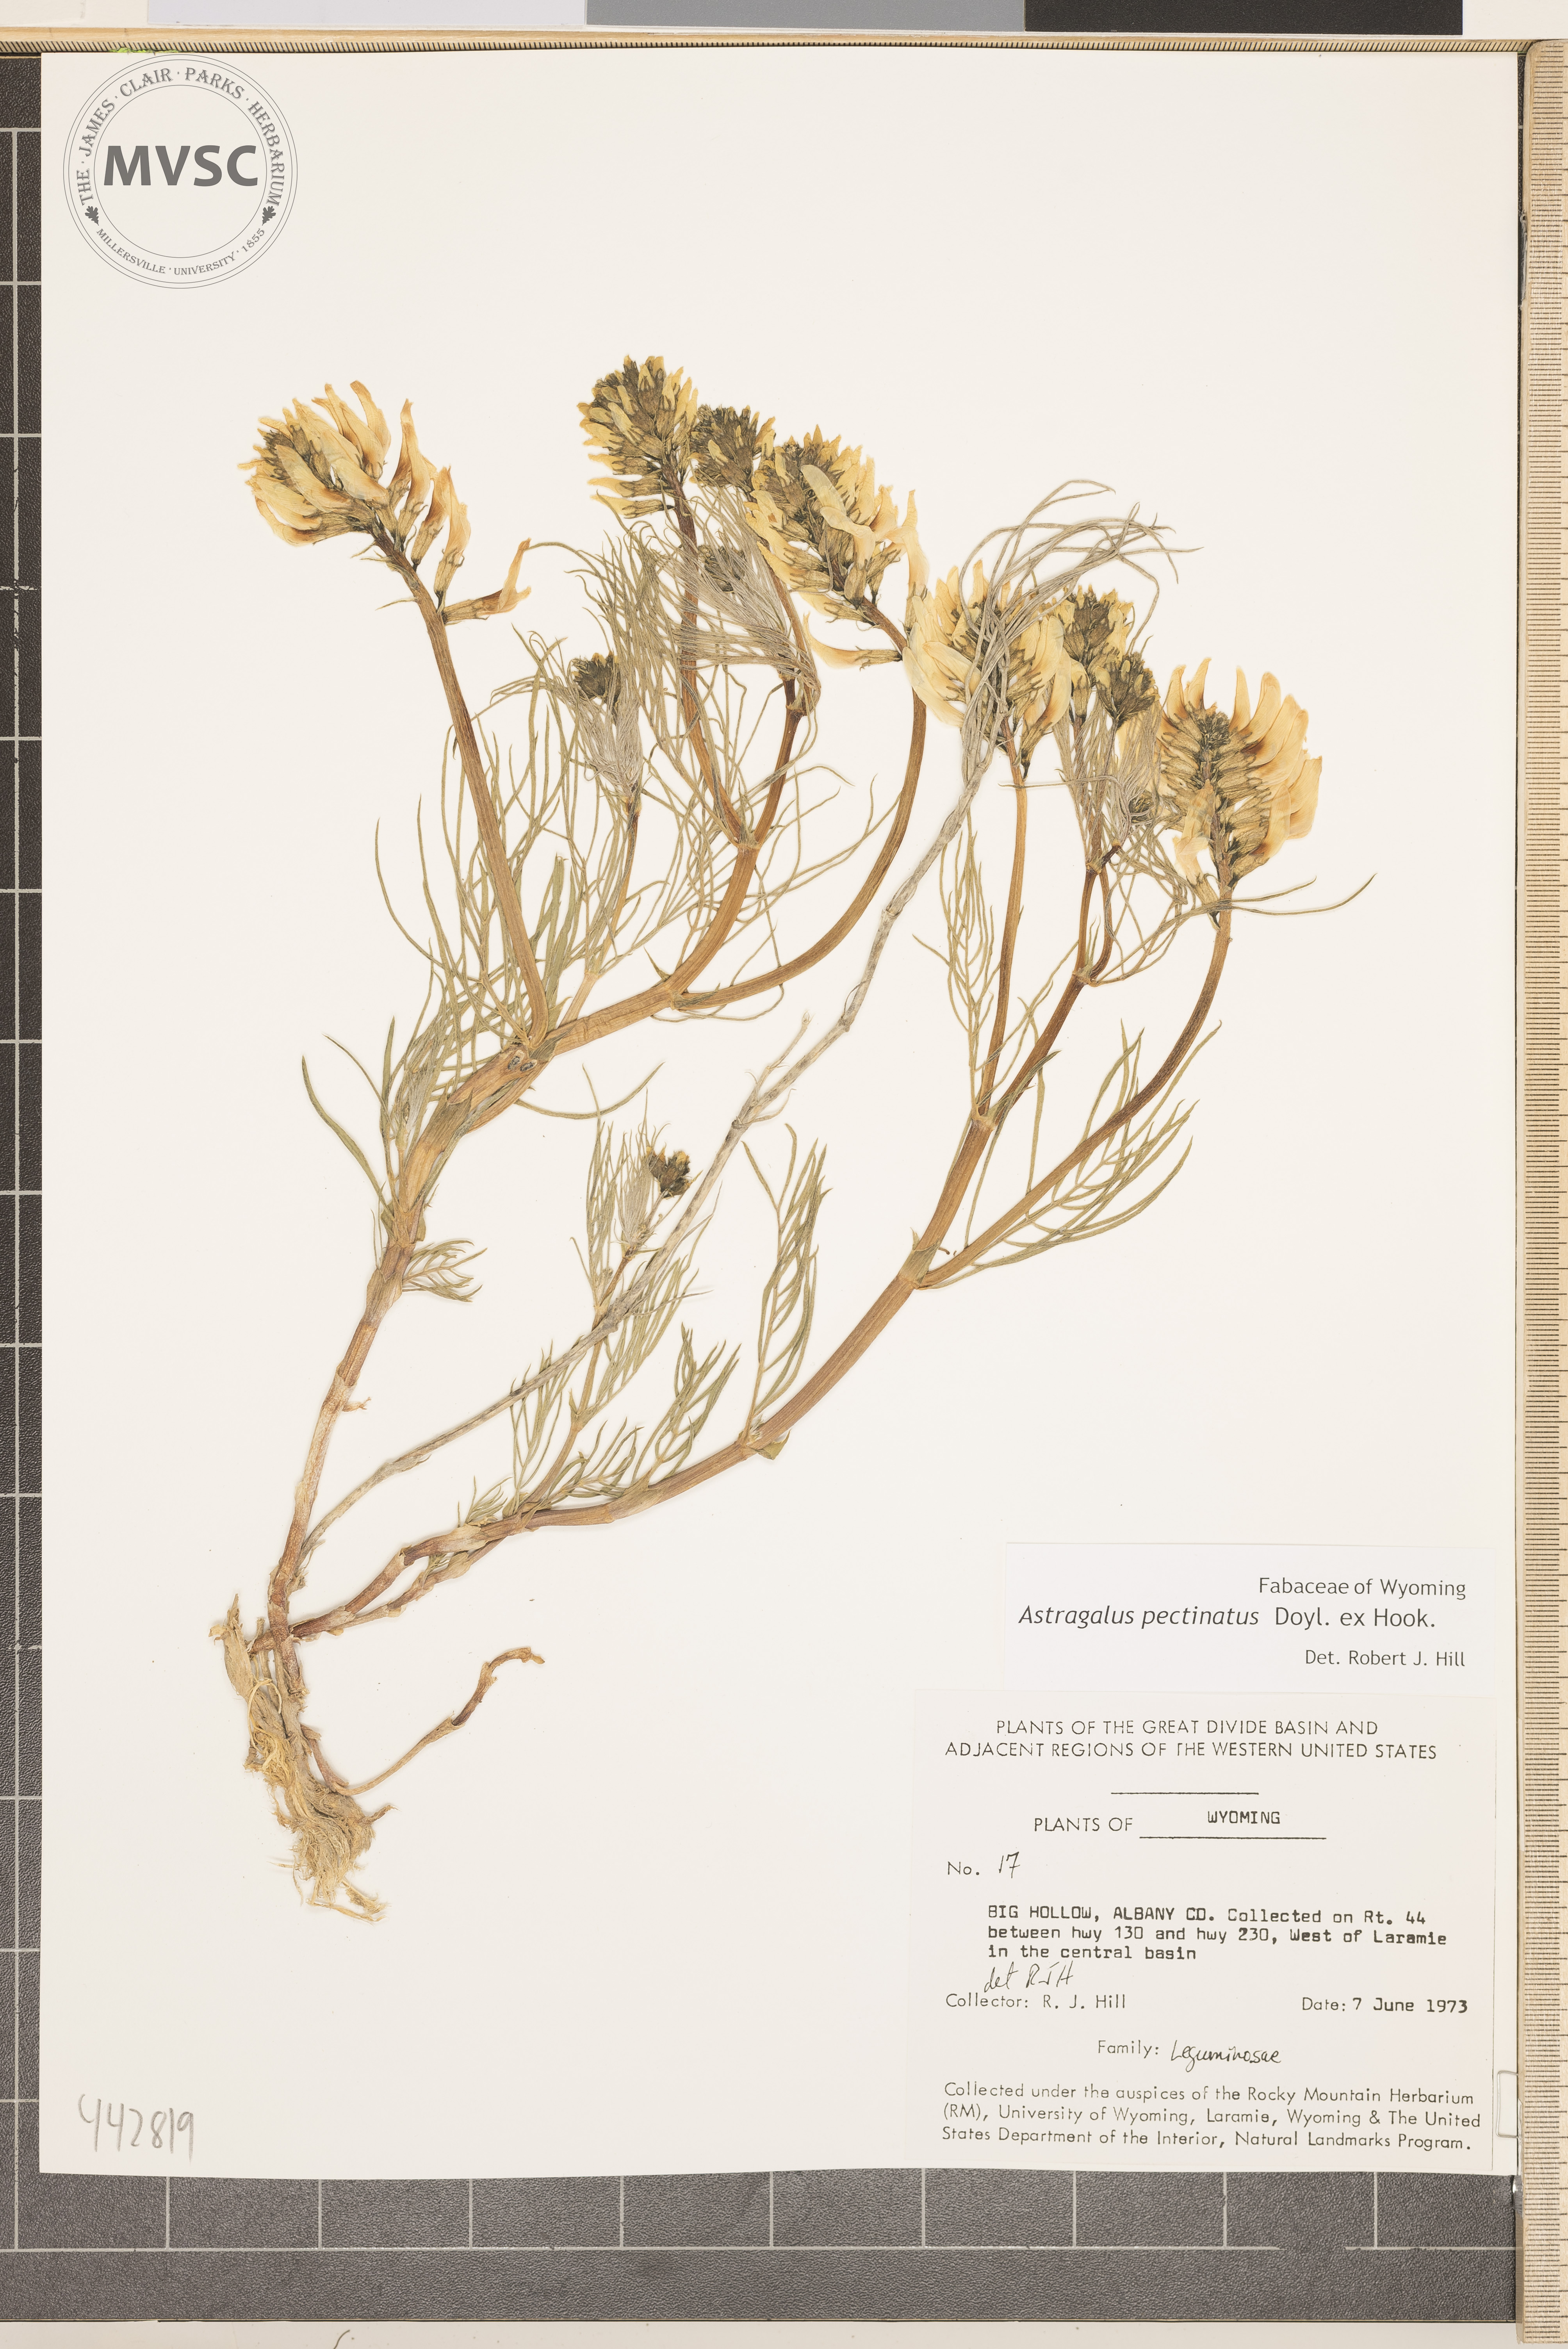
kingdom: Plantae
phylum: Tracheophyta
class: Magnoliopsida
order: Fabales
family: Fabaceae
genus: Astragalus
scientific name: Astragalus pectinatus
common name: Tine-leaf milk-vetch
